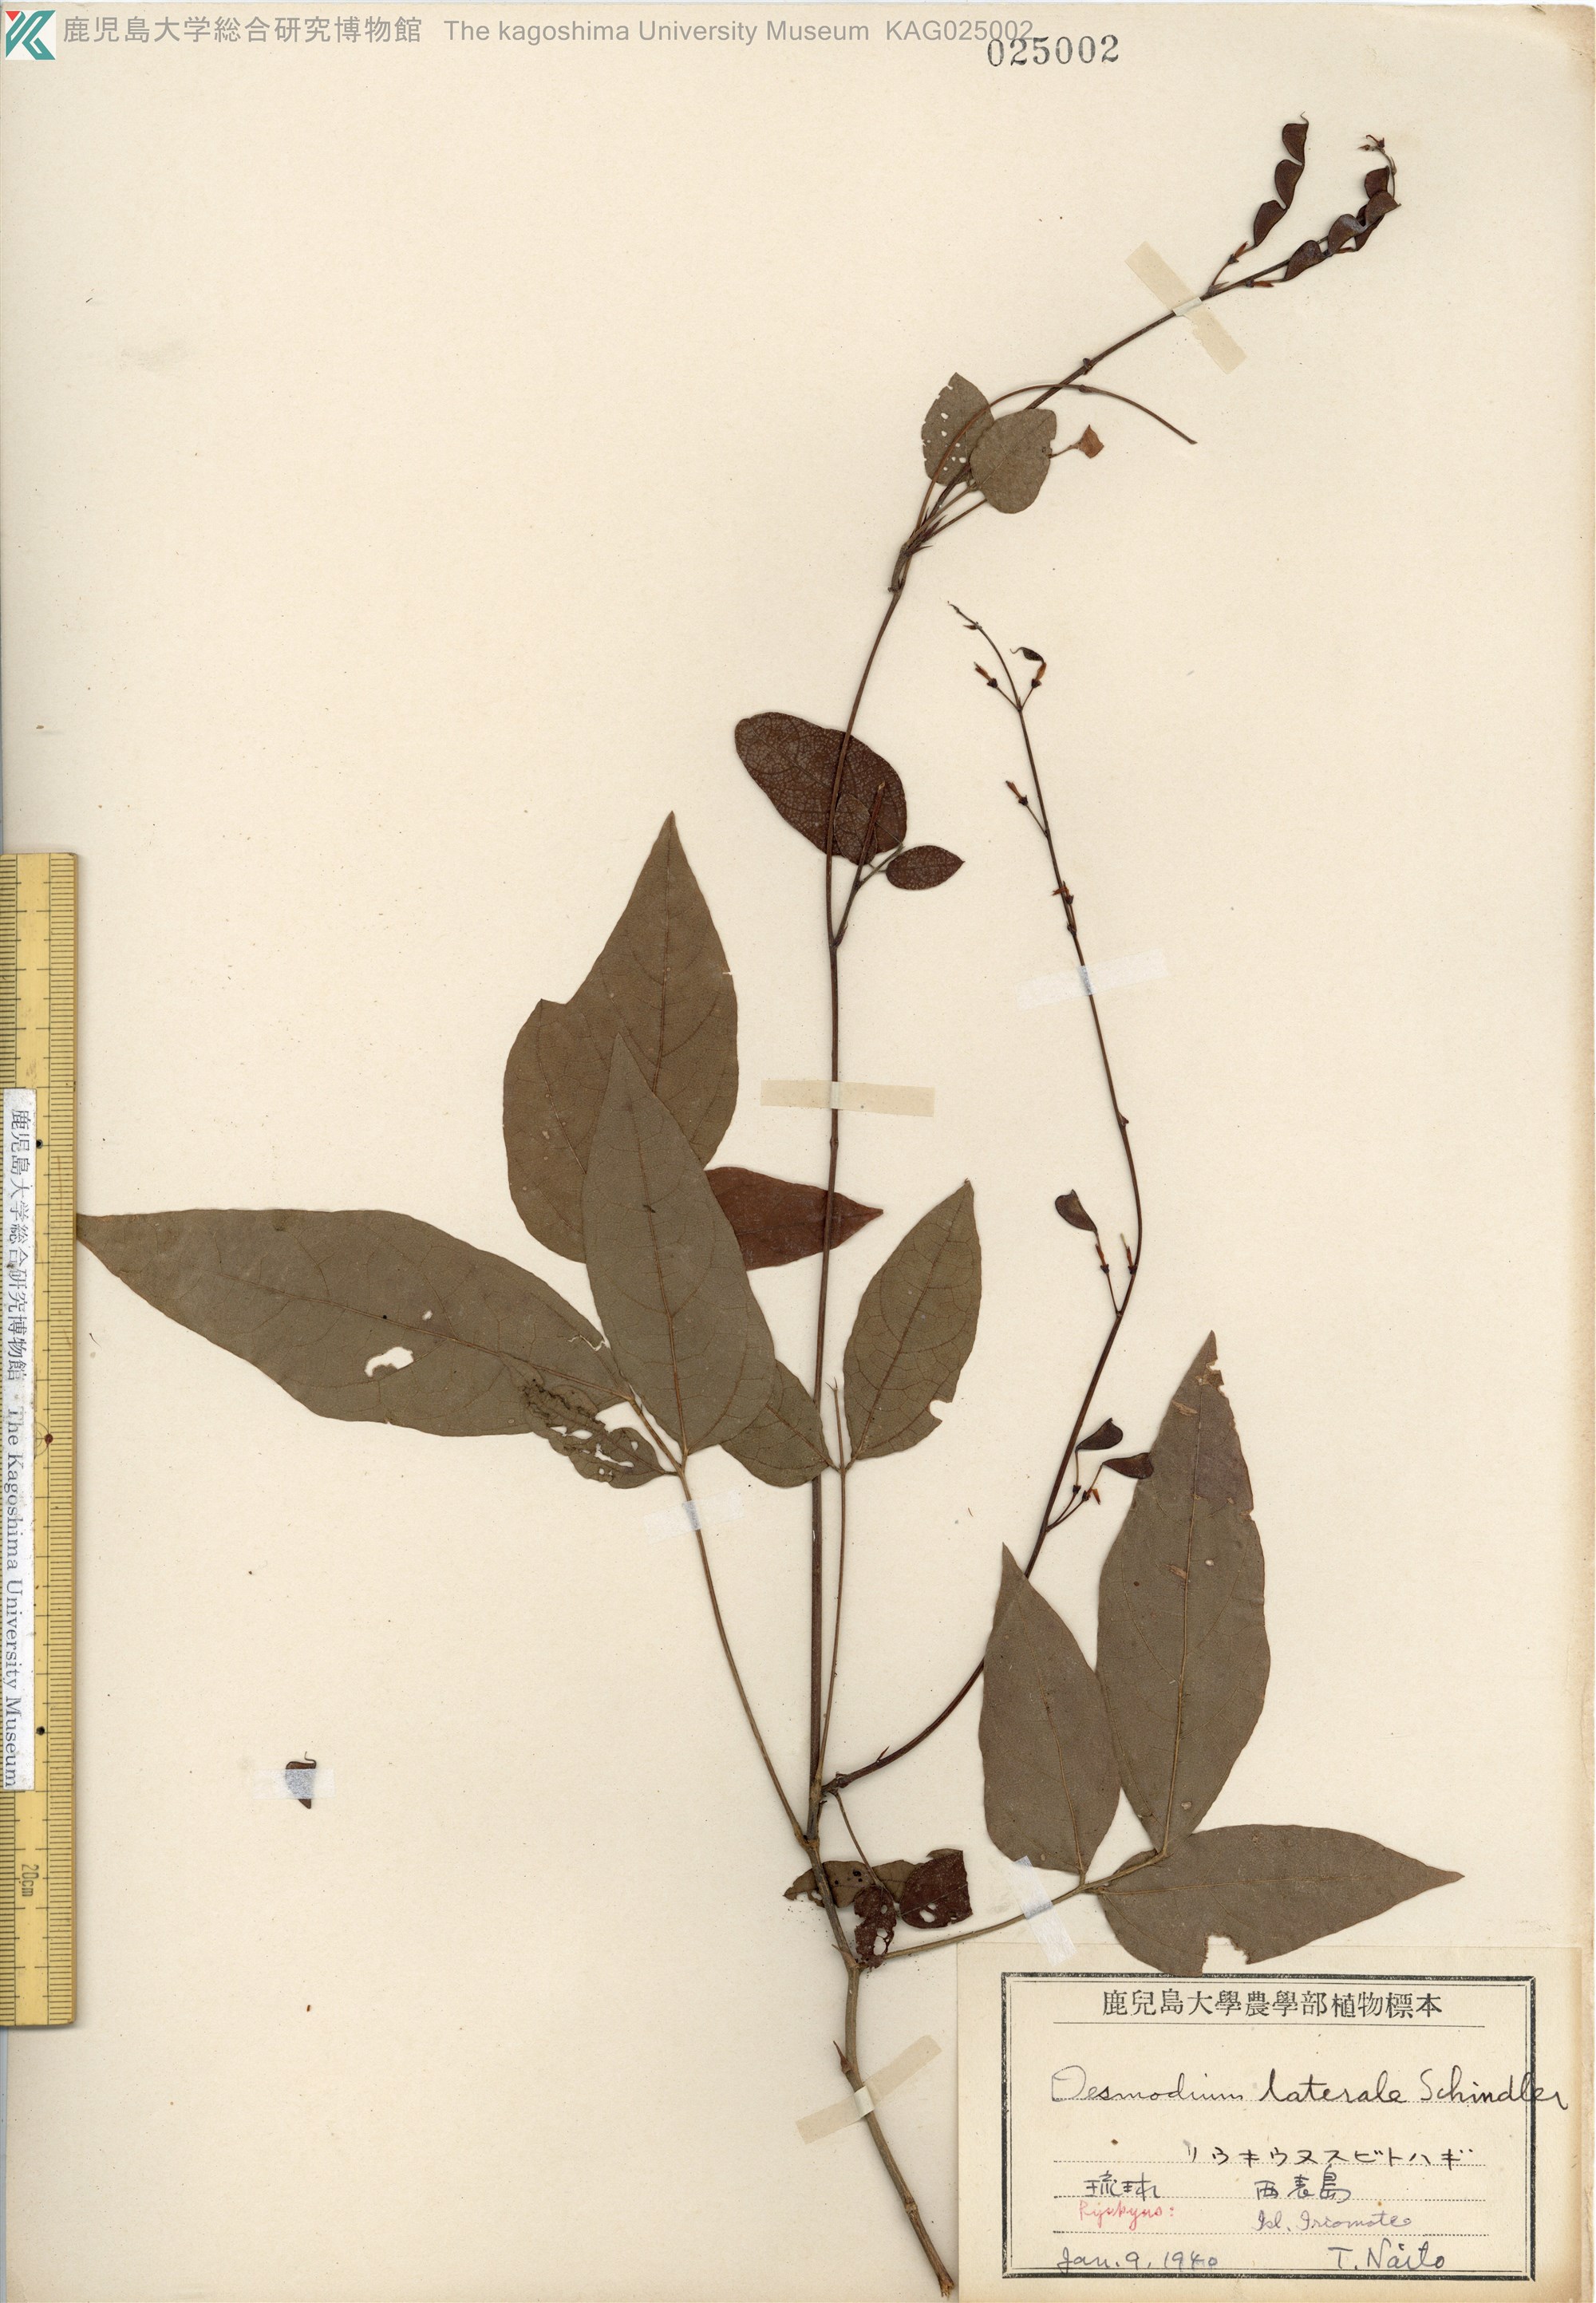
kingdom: Plantae
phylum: Tracheophyta
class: Magnoliopsida
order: Fabales
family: Fabaceae
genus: Hylodesmum
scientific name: Hylodesmum laterale
